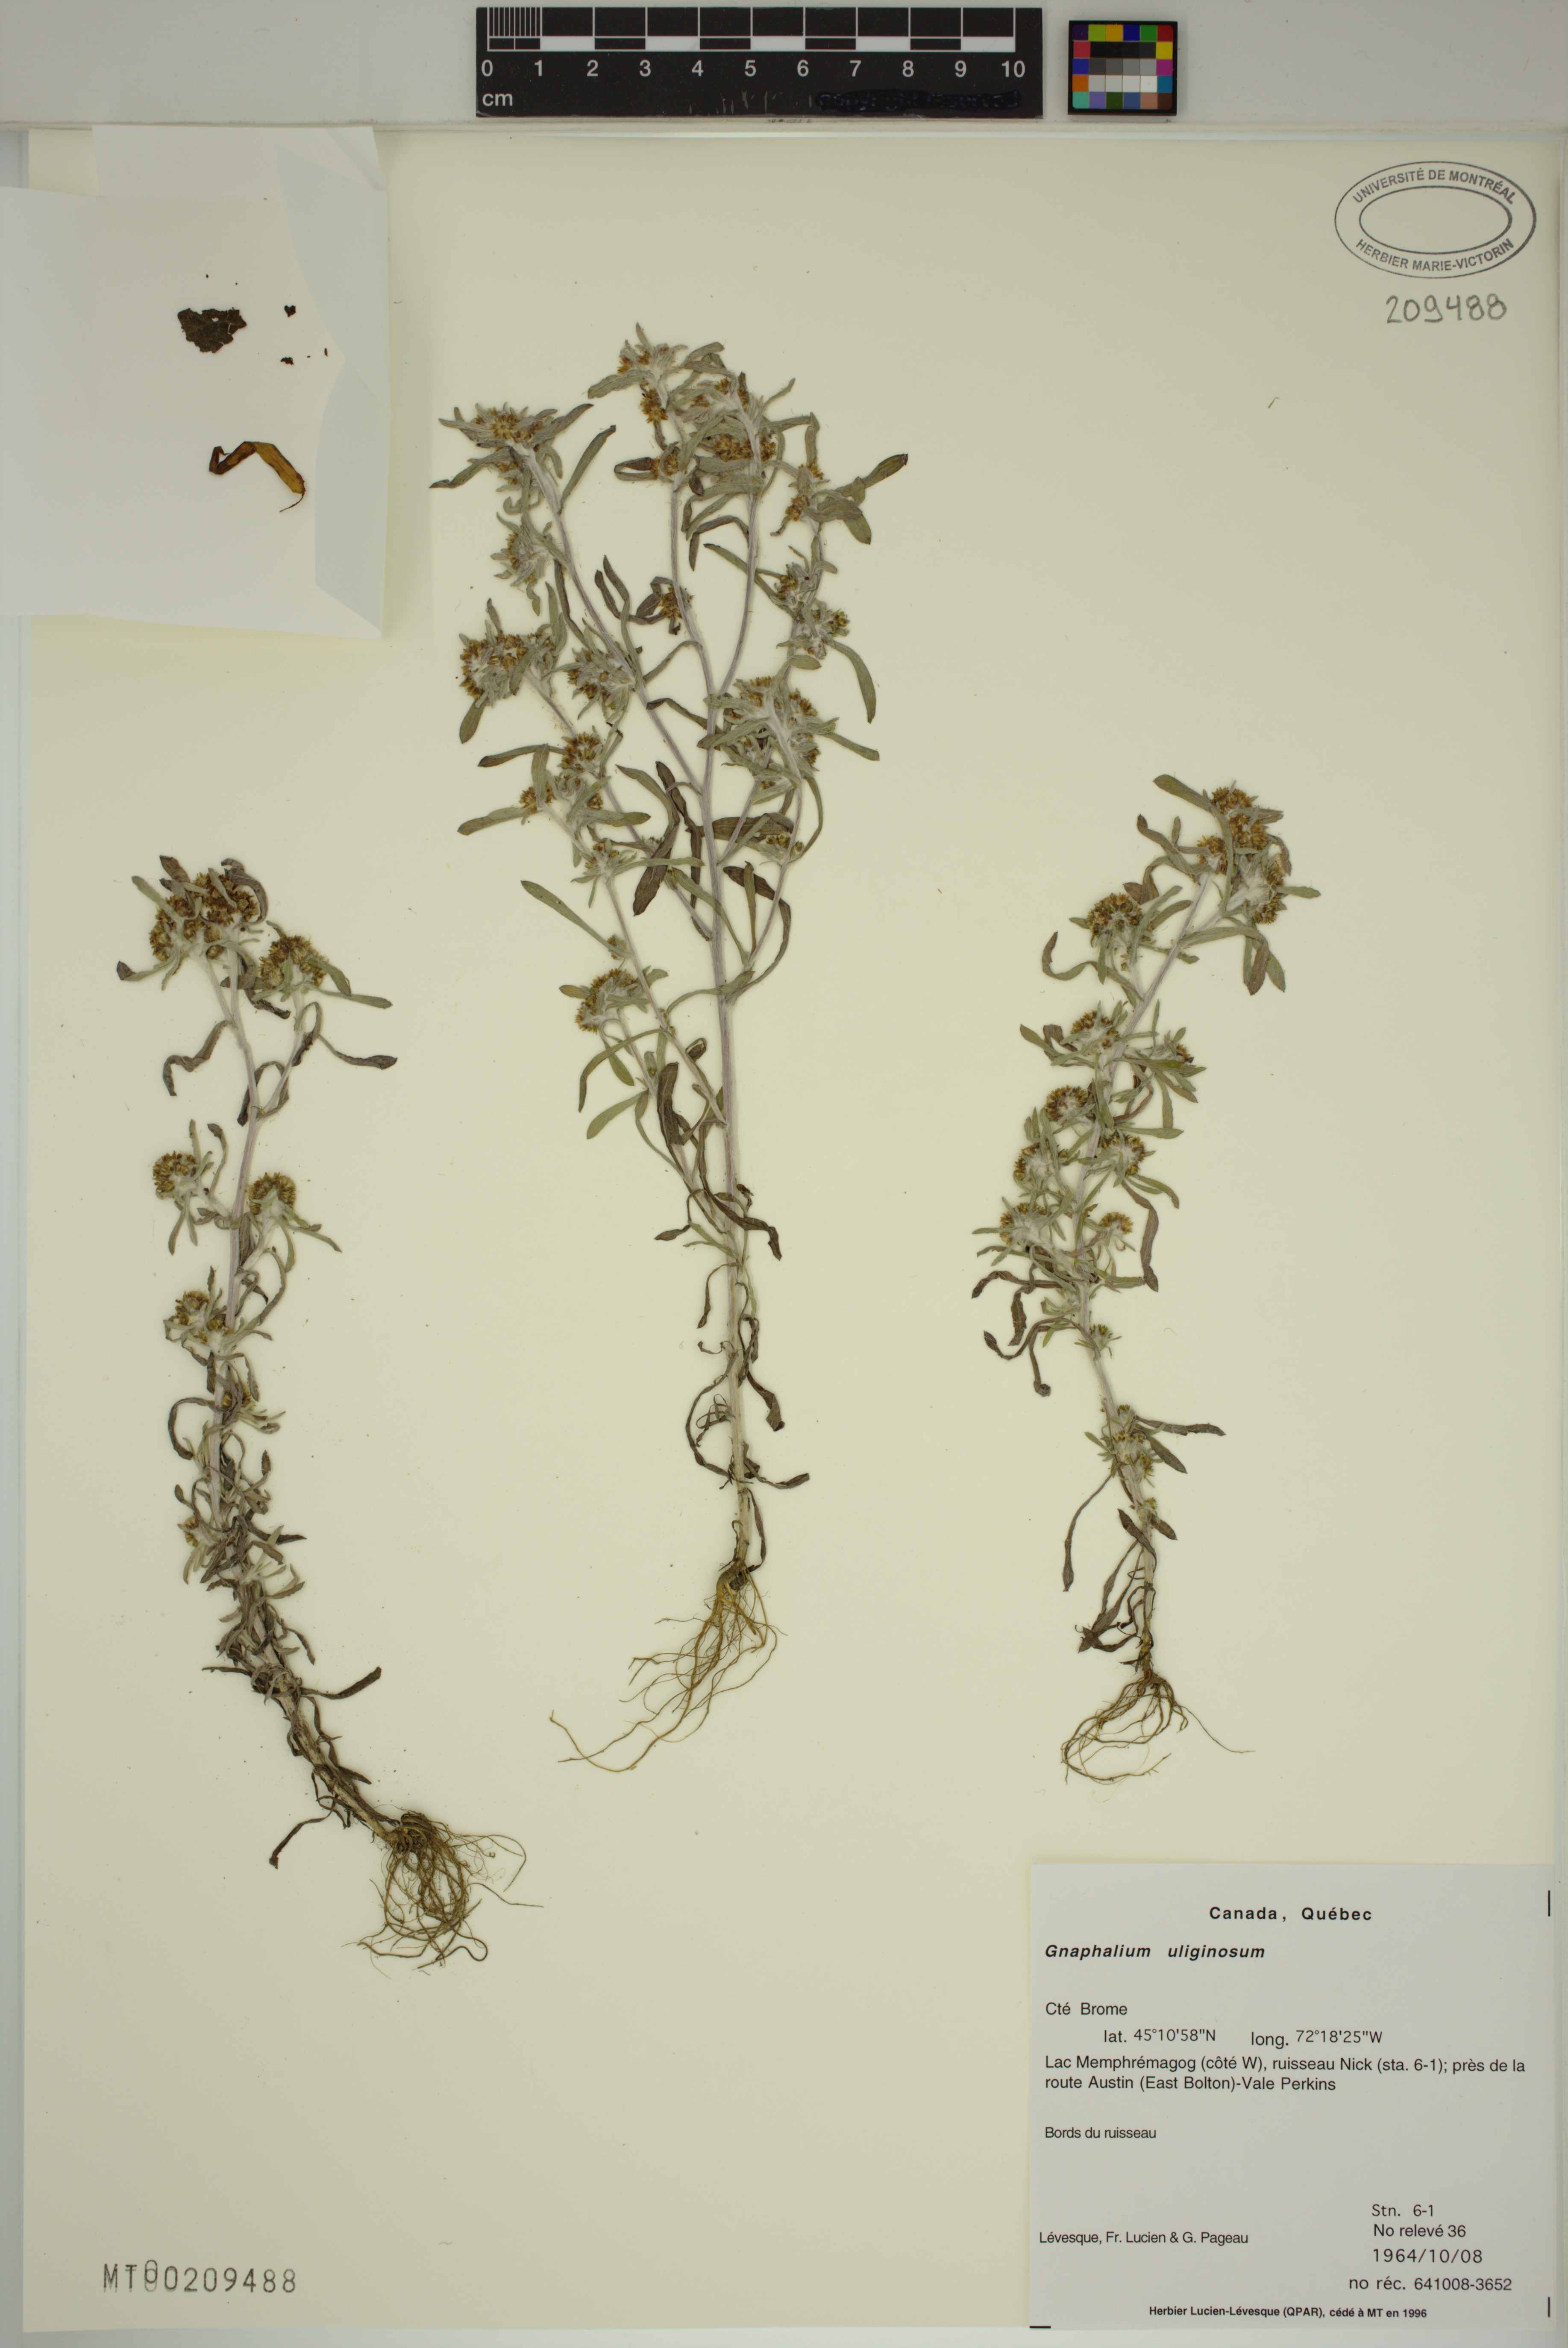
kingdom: Plantae
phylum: Tracheophyta
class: Magnoliopsida
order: Asterales
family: Asteraceae
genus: Gnaphalium
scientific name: Gnaphalium uliginosum
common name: Marsh cudweed
